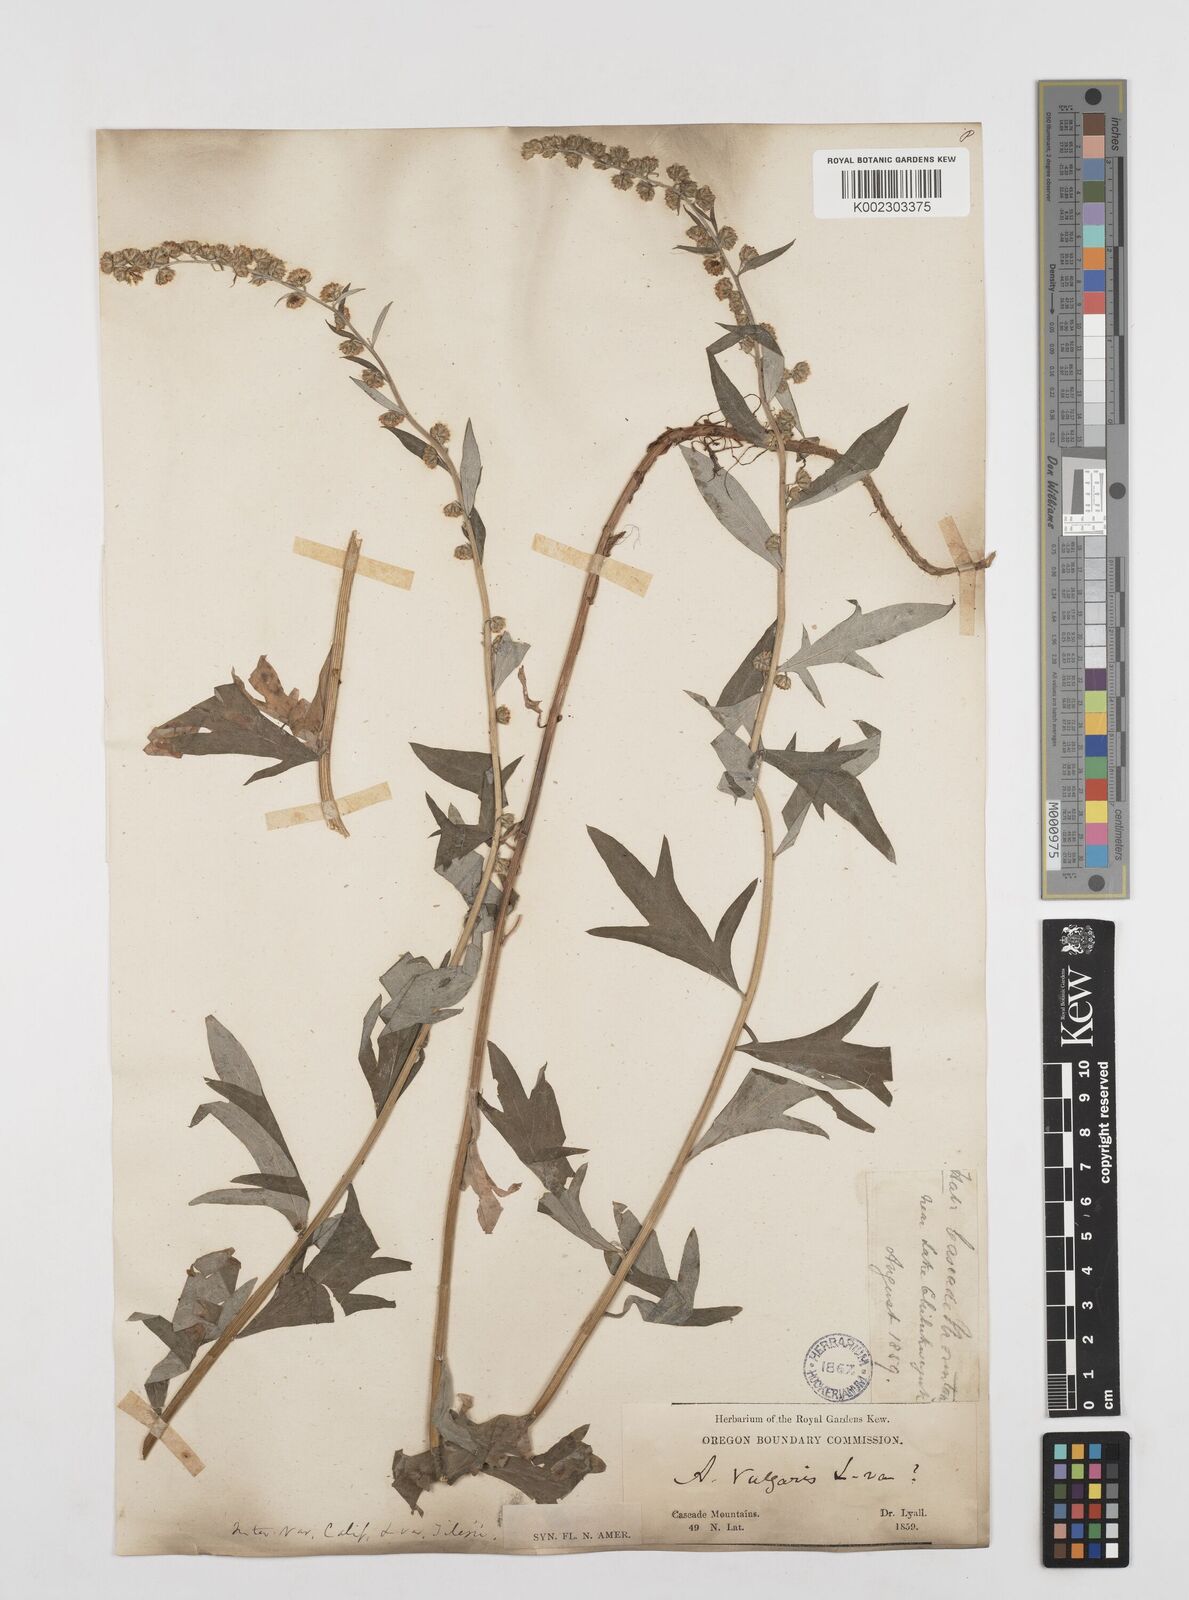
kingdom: Plantae
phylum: Tracheophyta
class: Magnoliopsida
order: Asterales
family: Asteraceae
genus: Artemisia
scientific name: Artemisia
